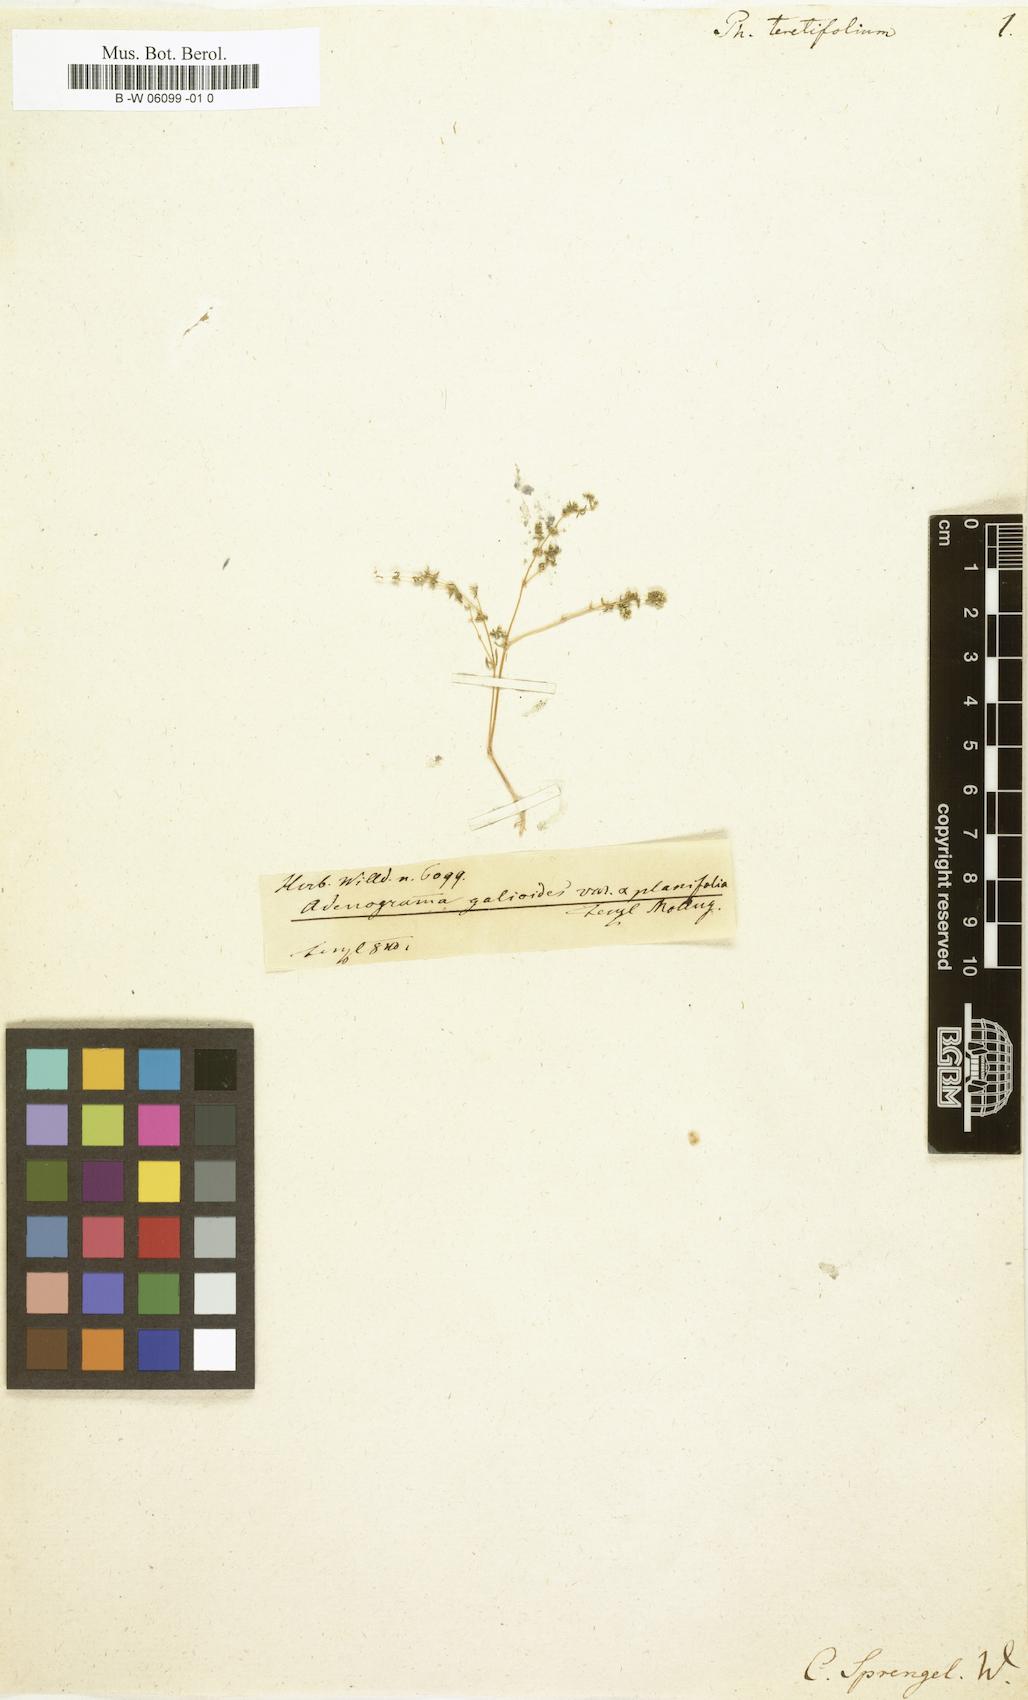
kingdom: Plantae
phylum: Tracheophyta
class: Magnoliopsida
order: Caryophyllales
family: Molluginaceae
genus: Adenogramma
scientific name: Adenogramma
